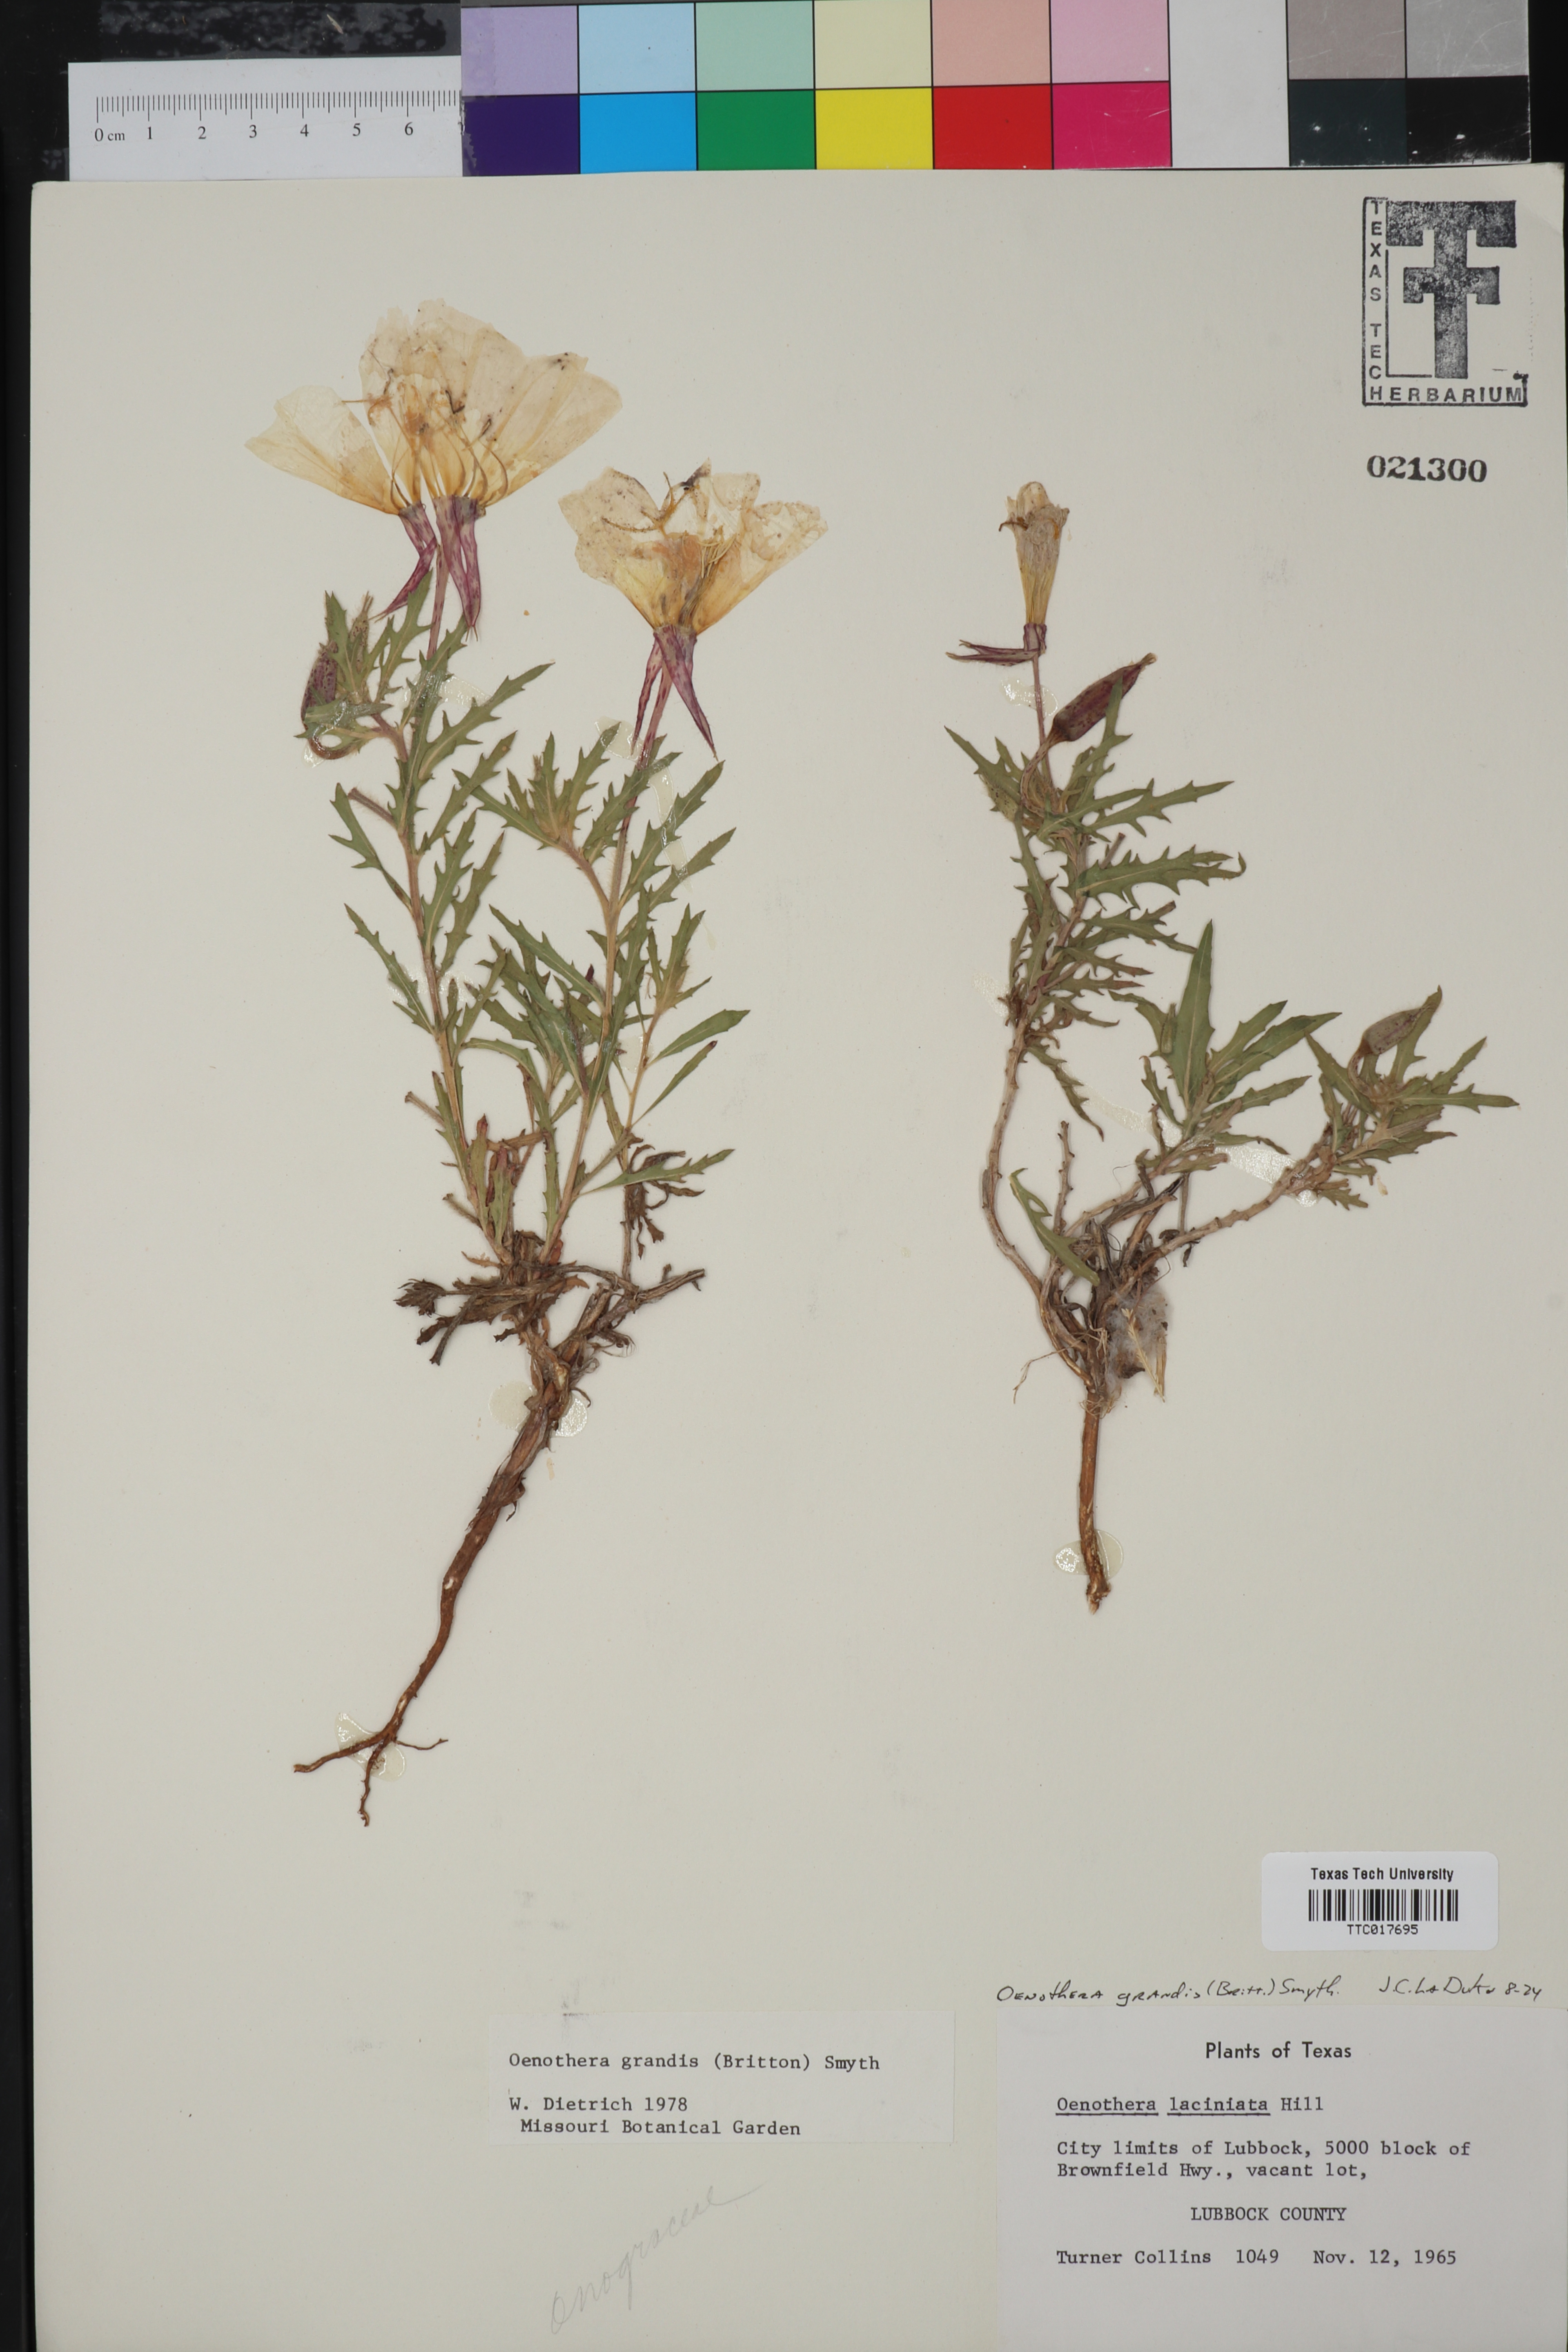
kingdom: Plantae
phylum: Tracheophyta
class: Magnoliopsida
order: Myrtales
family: Onagraceae
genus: Oenothera
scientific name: Oenothera grandis
